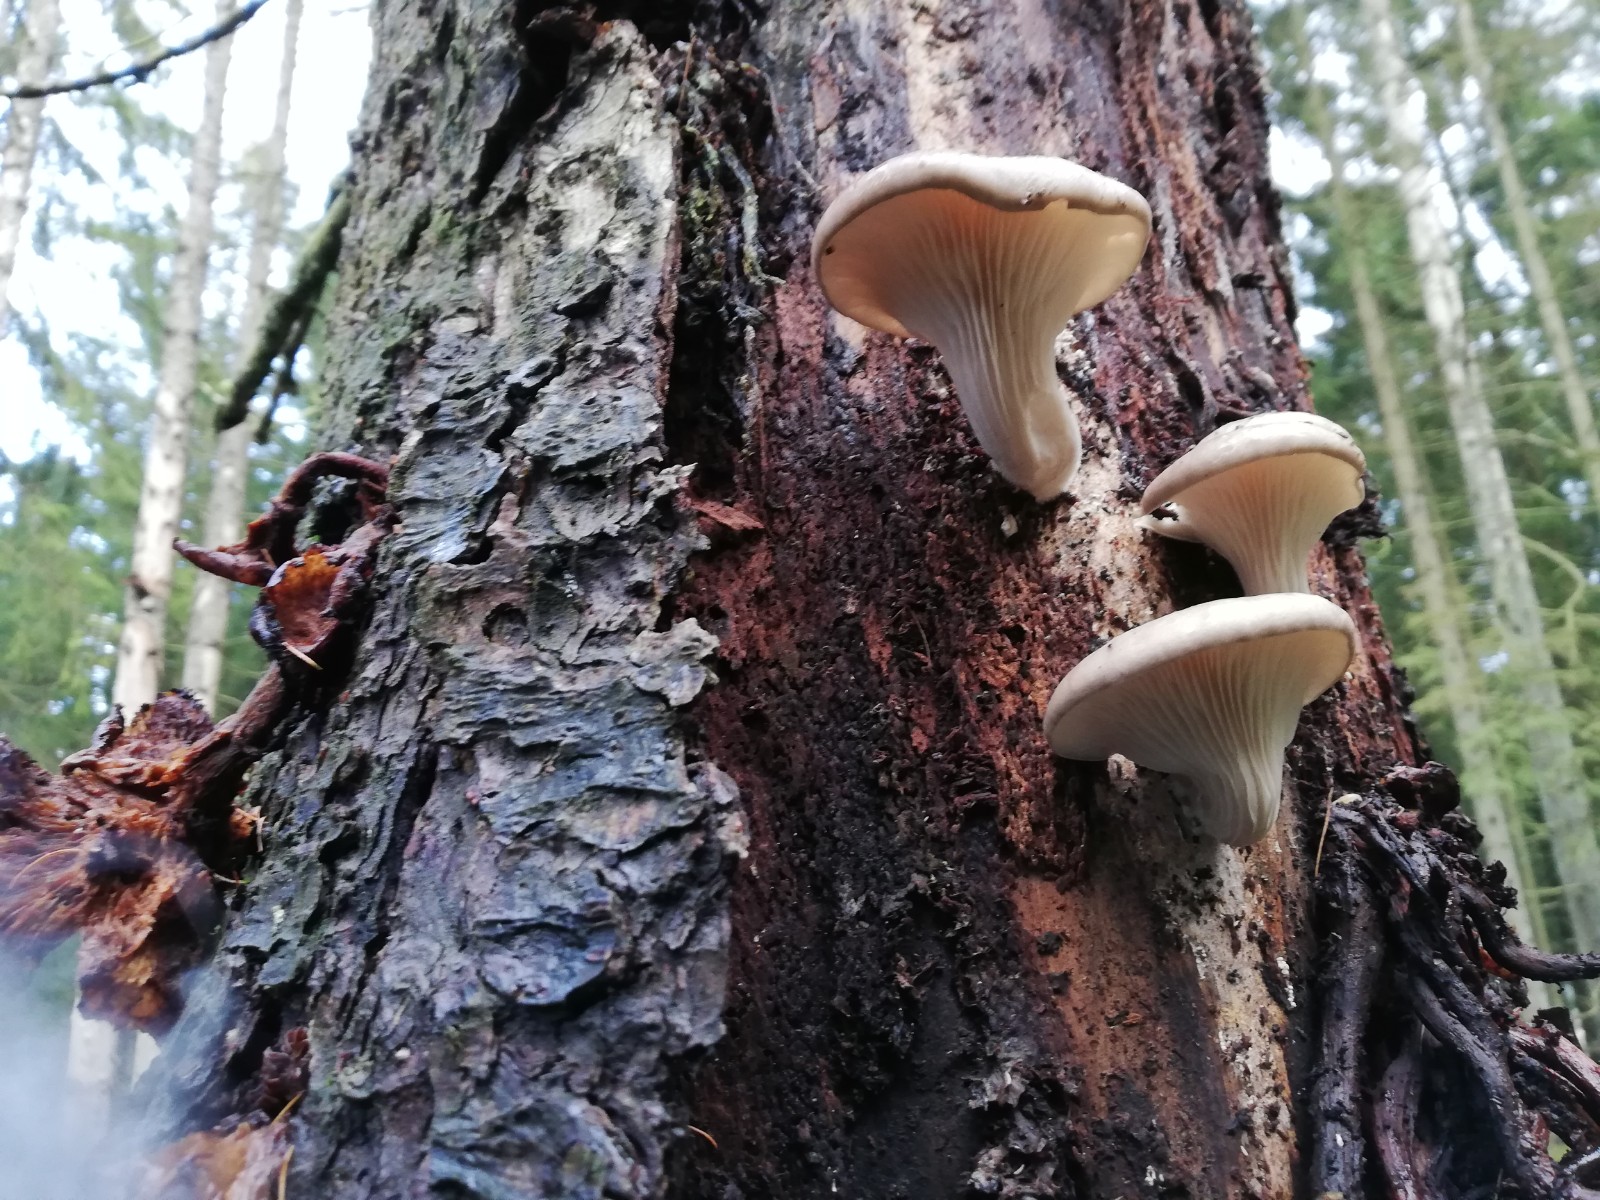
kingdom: Fungi
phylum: Basidiomycota
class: Agaricomycetes
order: Agaricales
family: Pleurotaceae
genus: Pleurotus
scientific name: Pleurotus ostreatus
